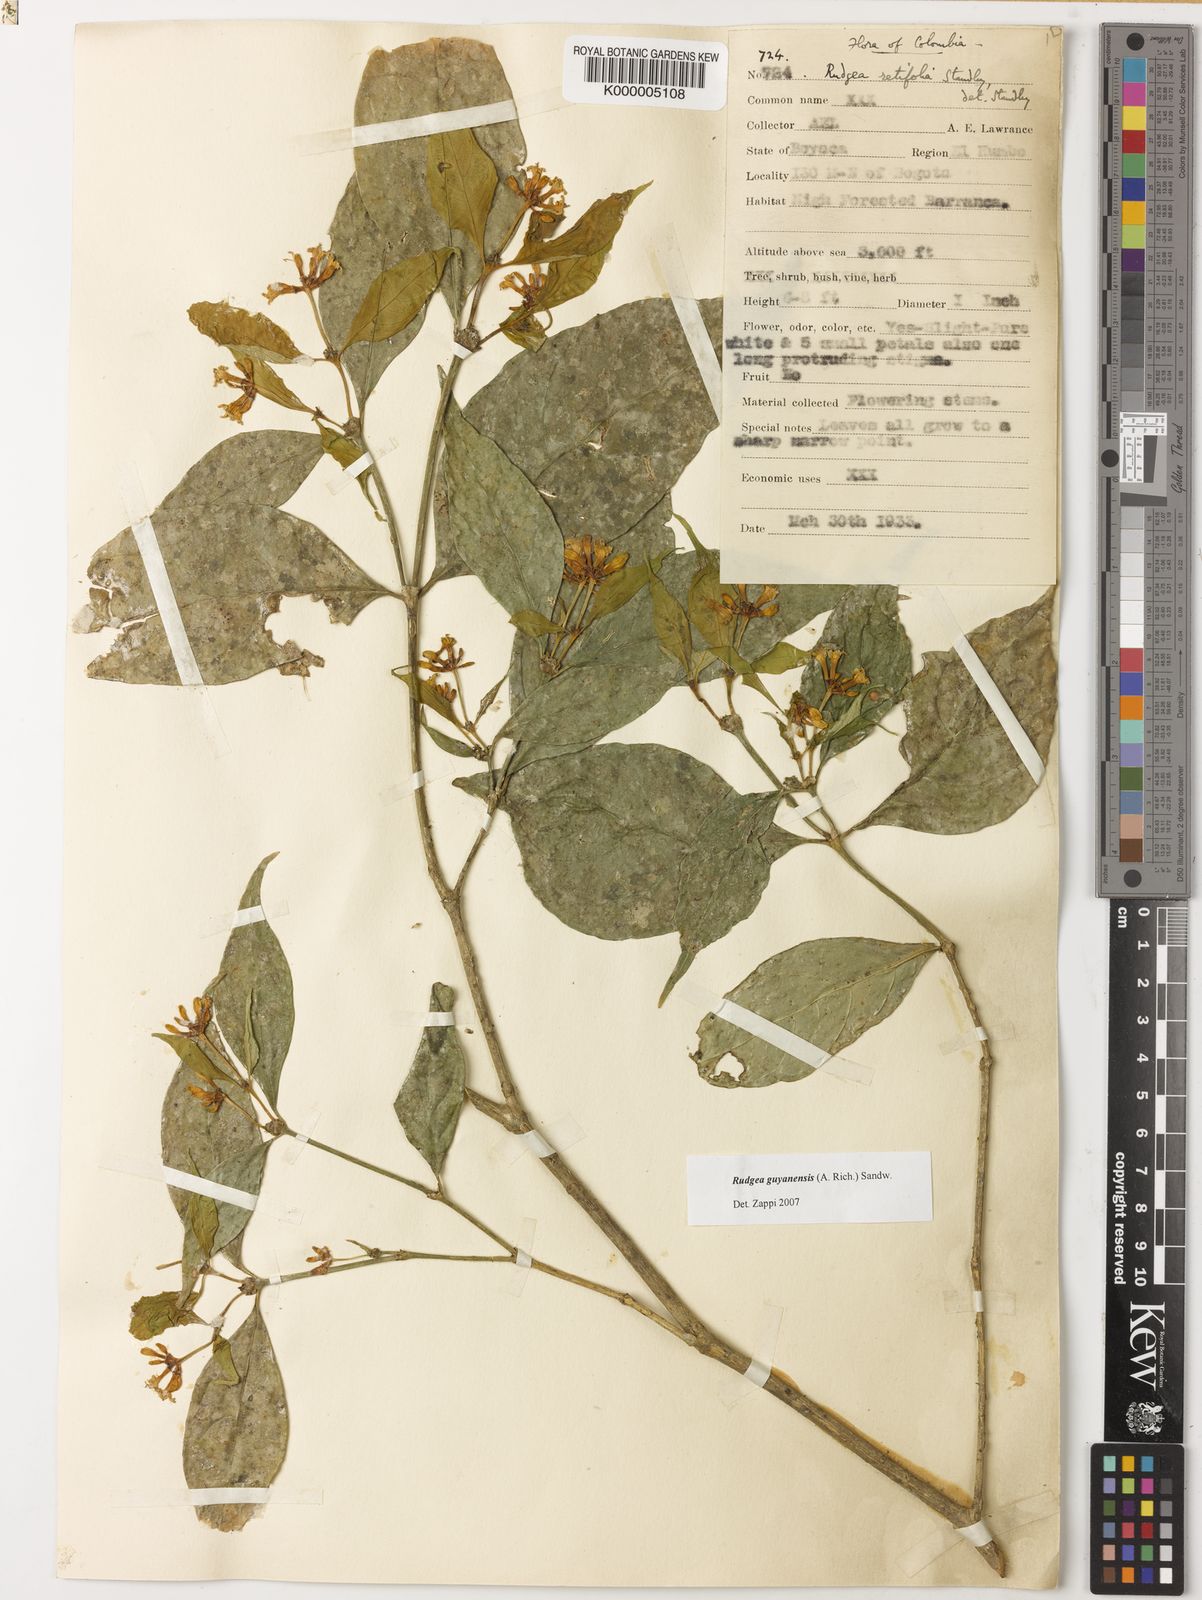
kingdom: Plantae
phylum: Tracheophyta
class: Magnoliopsida
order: Gentianales
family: Rubiaceae
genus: Rudgea
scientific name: Rudgea guianensis
